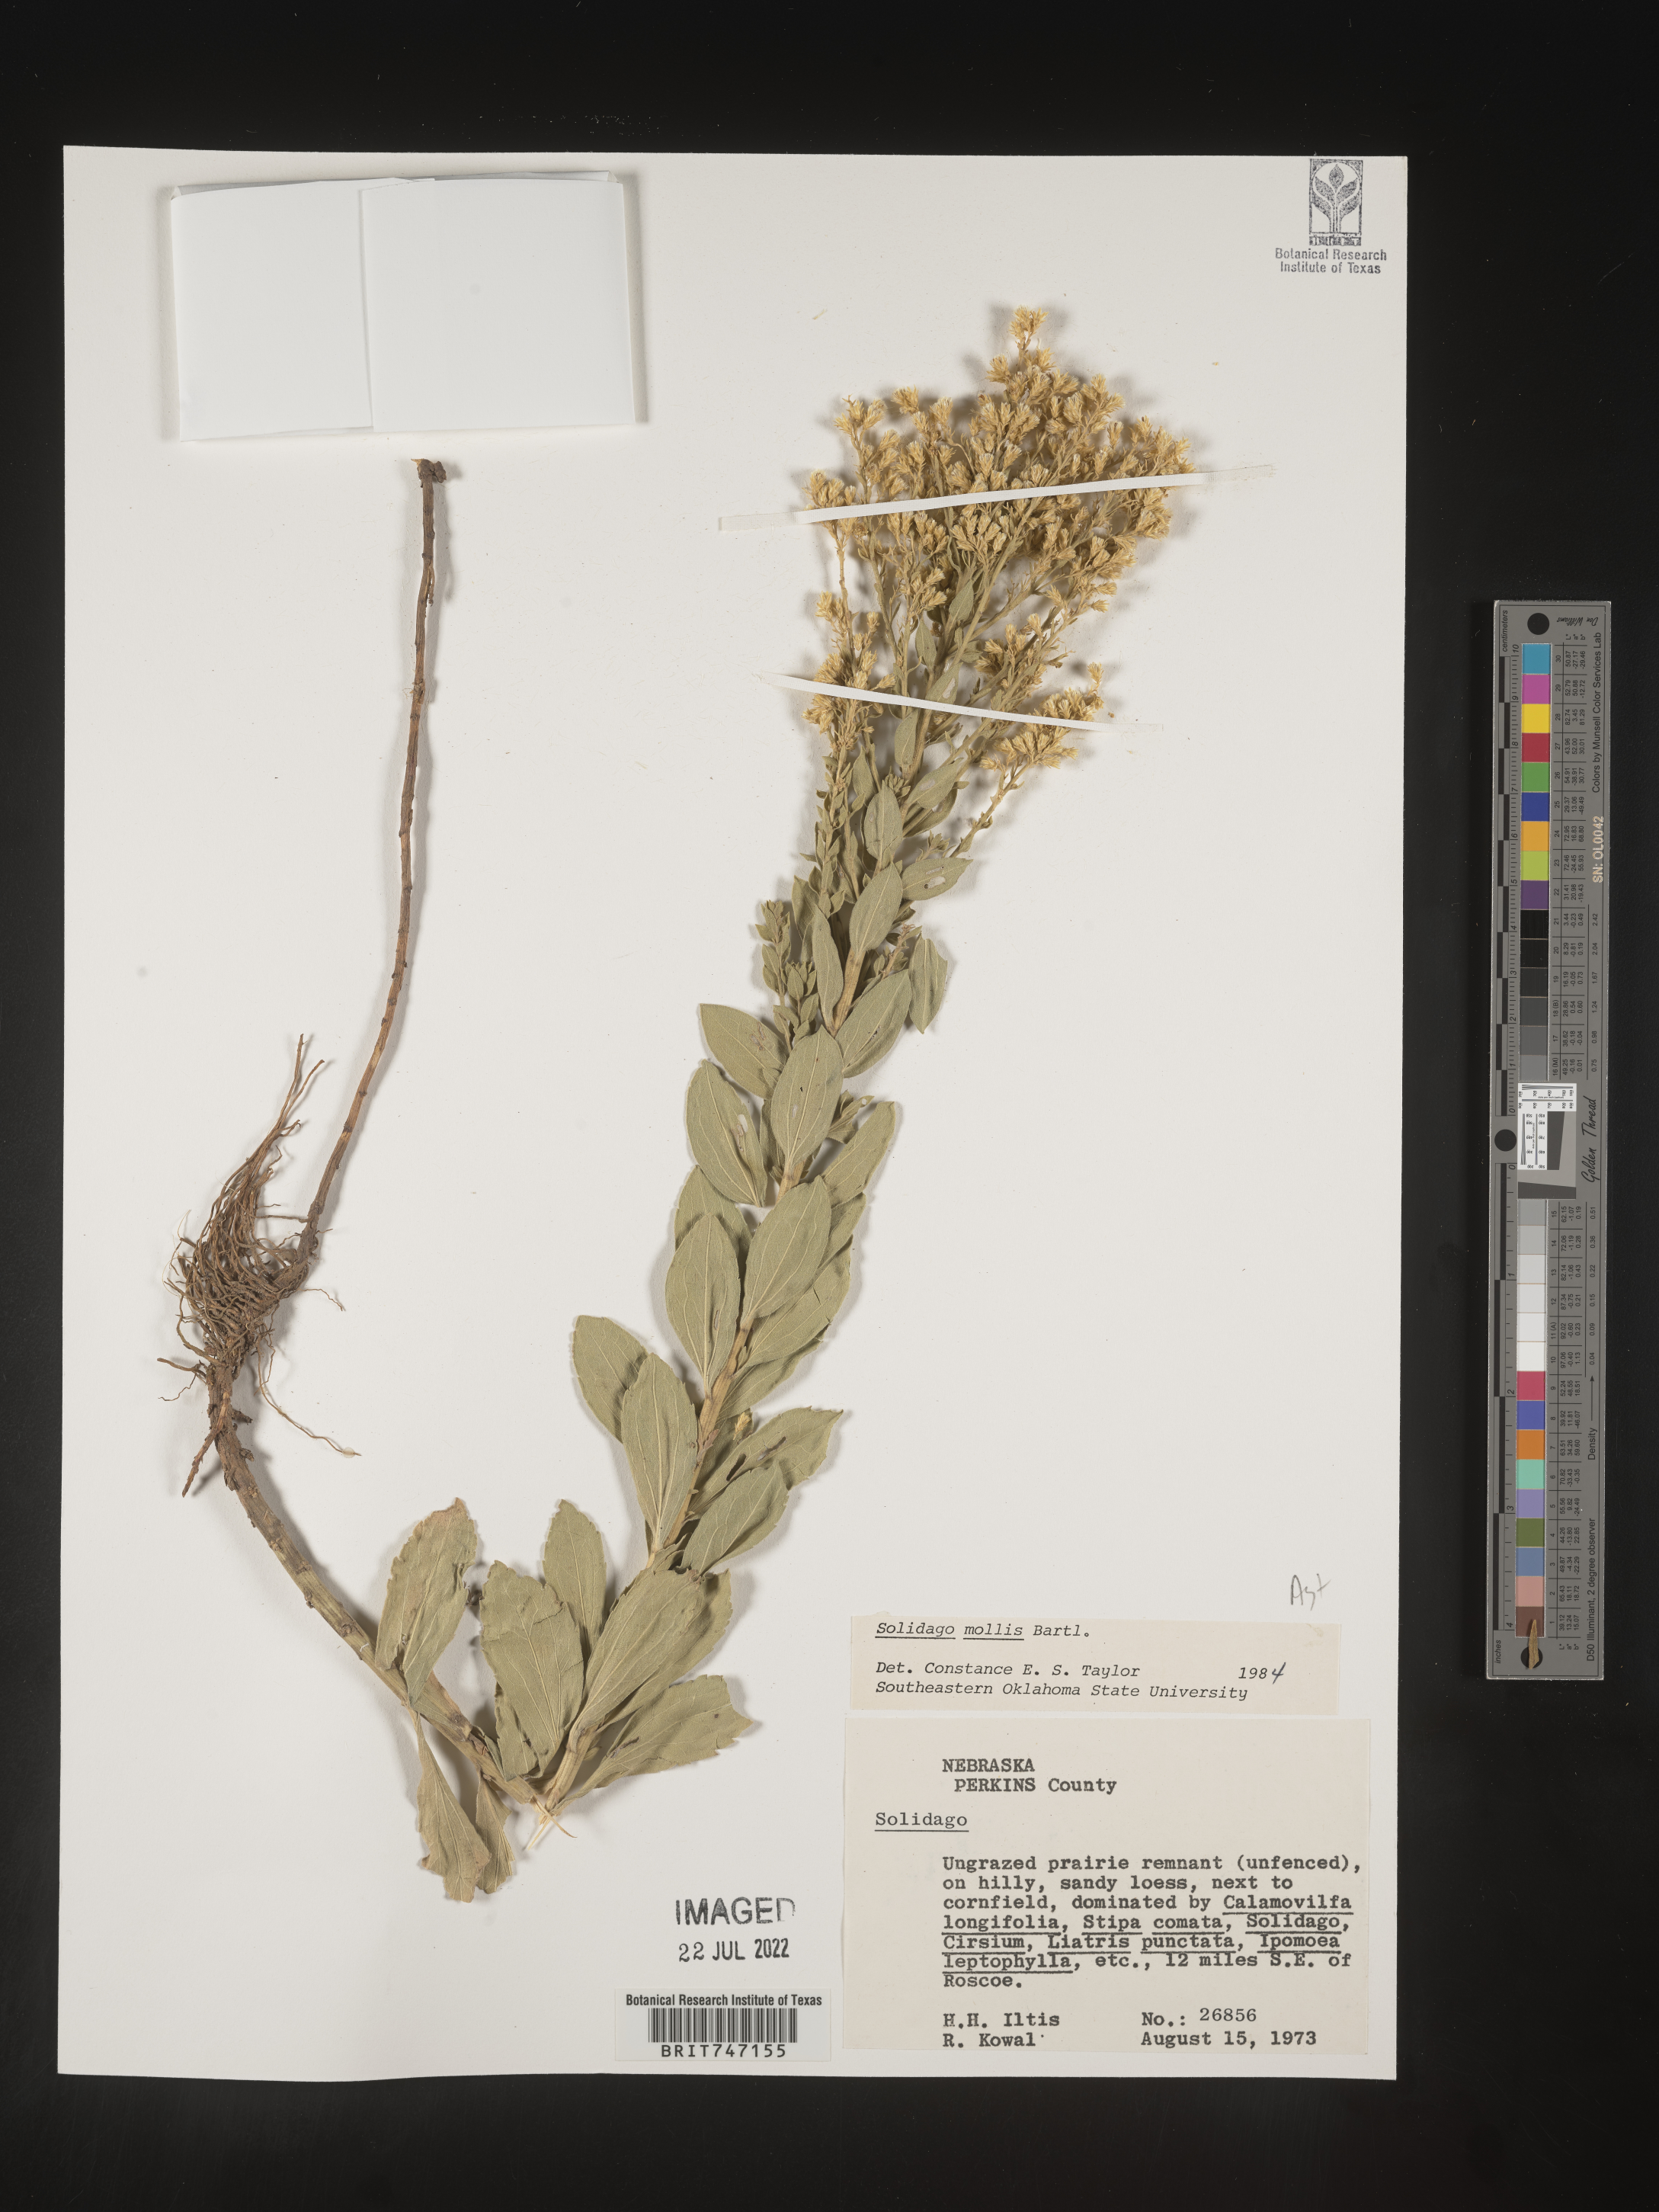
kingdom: Plantae
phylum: Tracheophyta
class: Magnoliopsida
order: Asterales
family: Asteraceae
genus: Solidago
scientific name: Solidago mollis
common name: Ashly goldenrod
